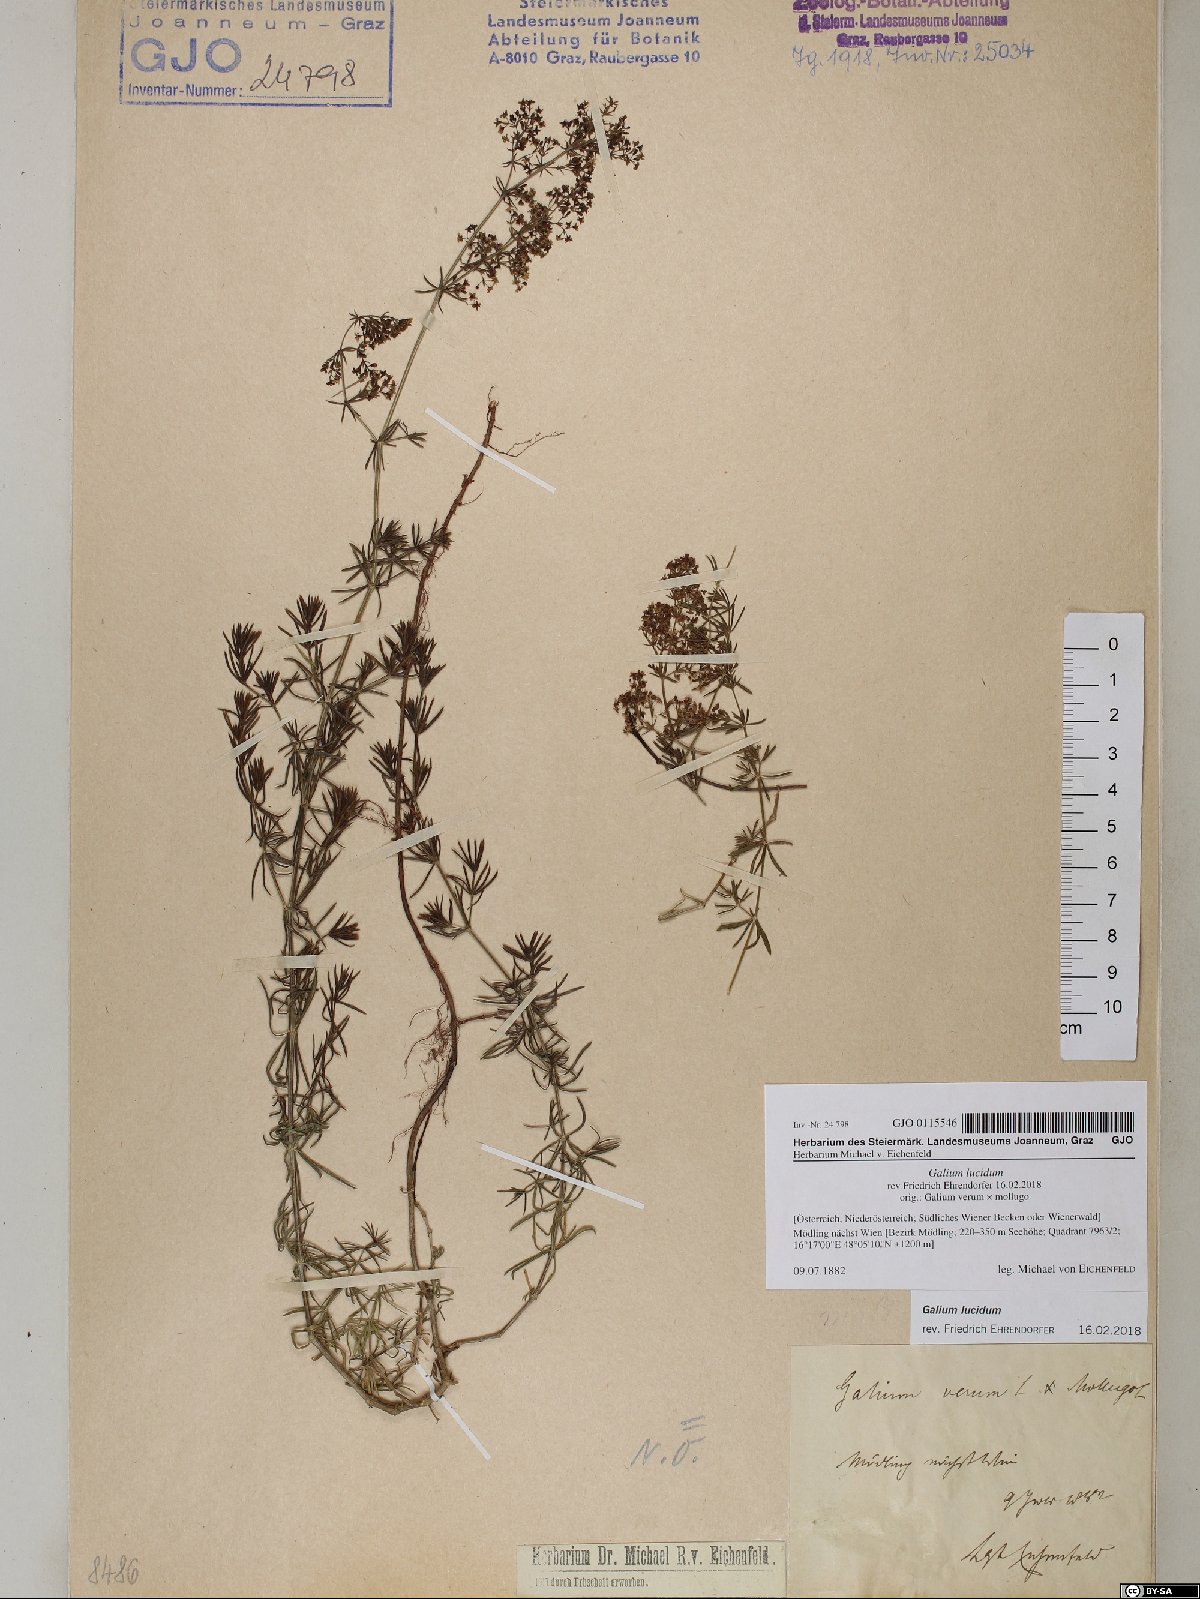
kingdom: Plantae
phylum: Tracheophyta
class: Magnoliopsida
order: Gentianales
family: Rubiaceae
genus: Galium
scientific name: Galium lucidum
